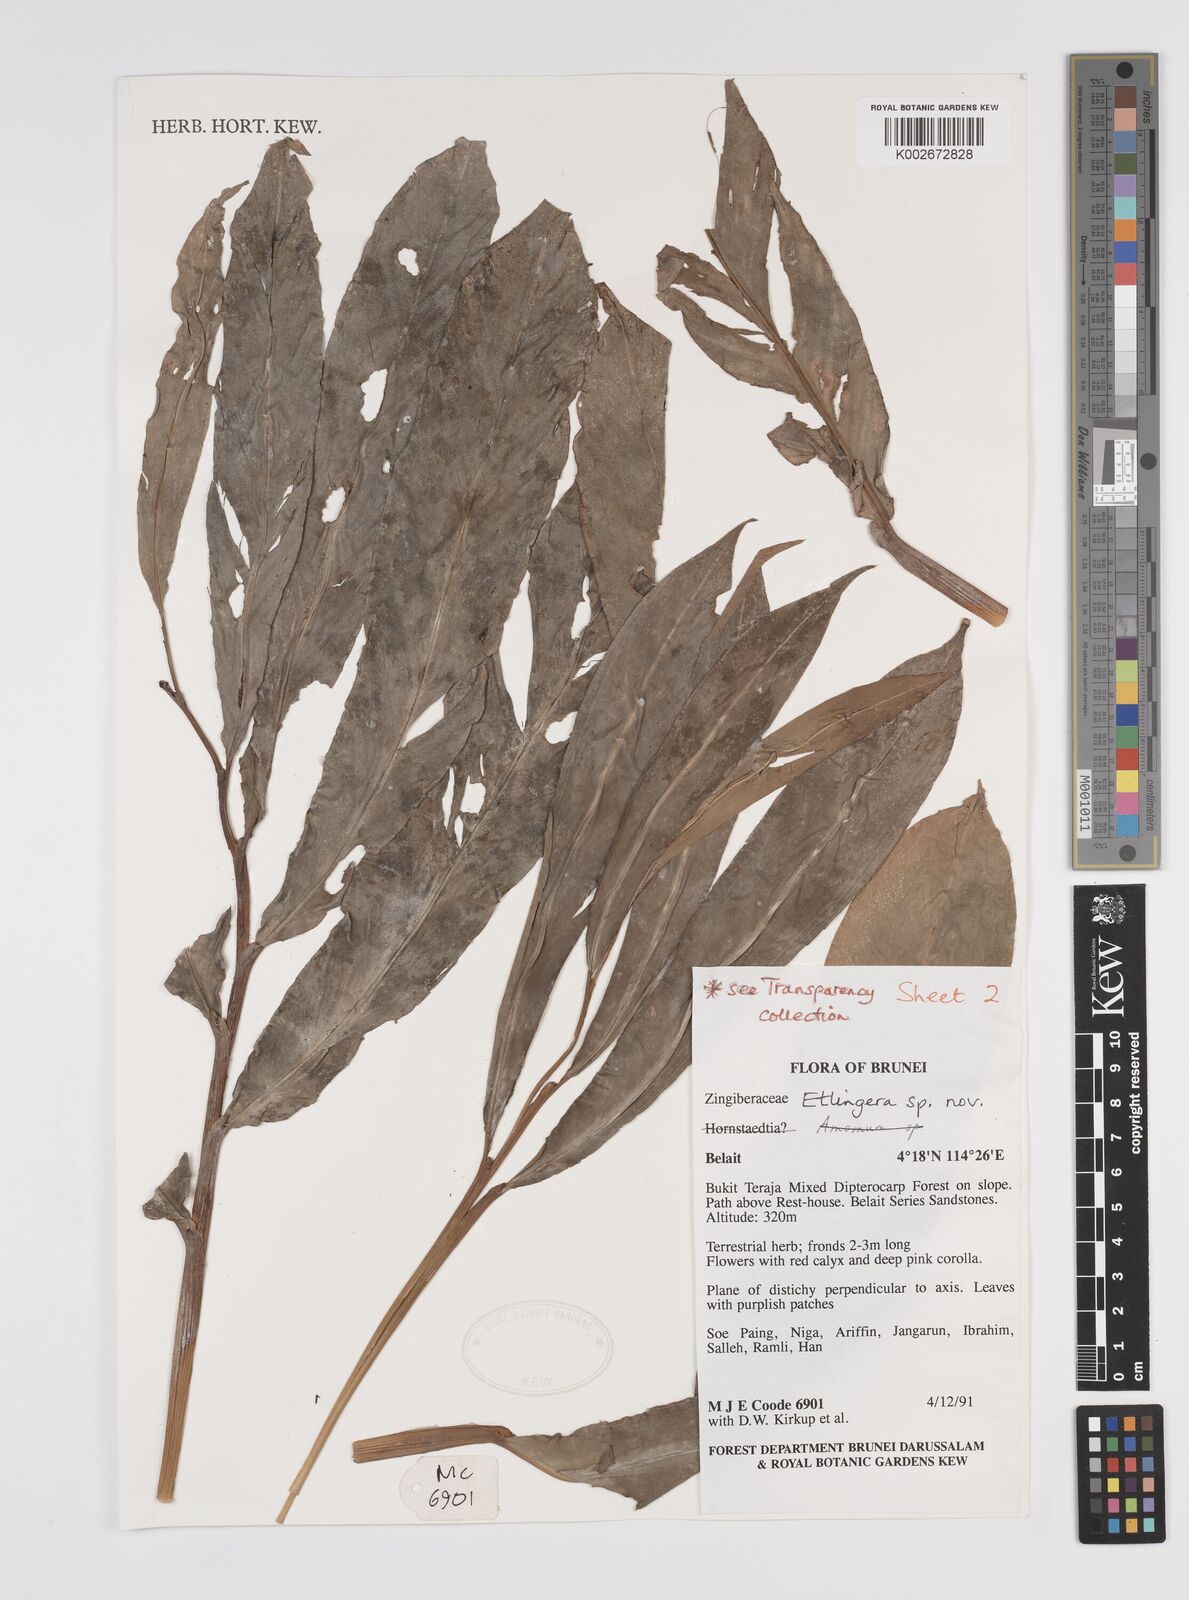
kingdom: Plantae
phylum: Tracheophyta
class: Liliopsida
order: Zingiberales
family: Zingiberaceae
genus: Etlingera
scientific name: Etlingera
